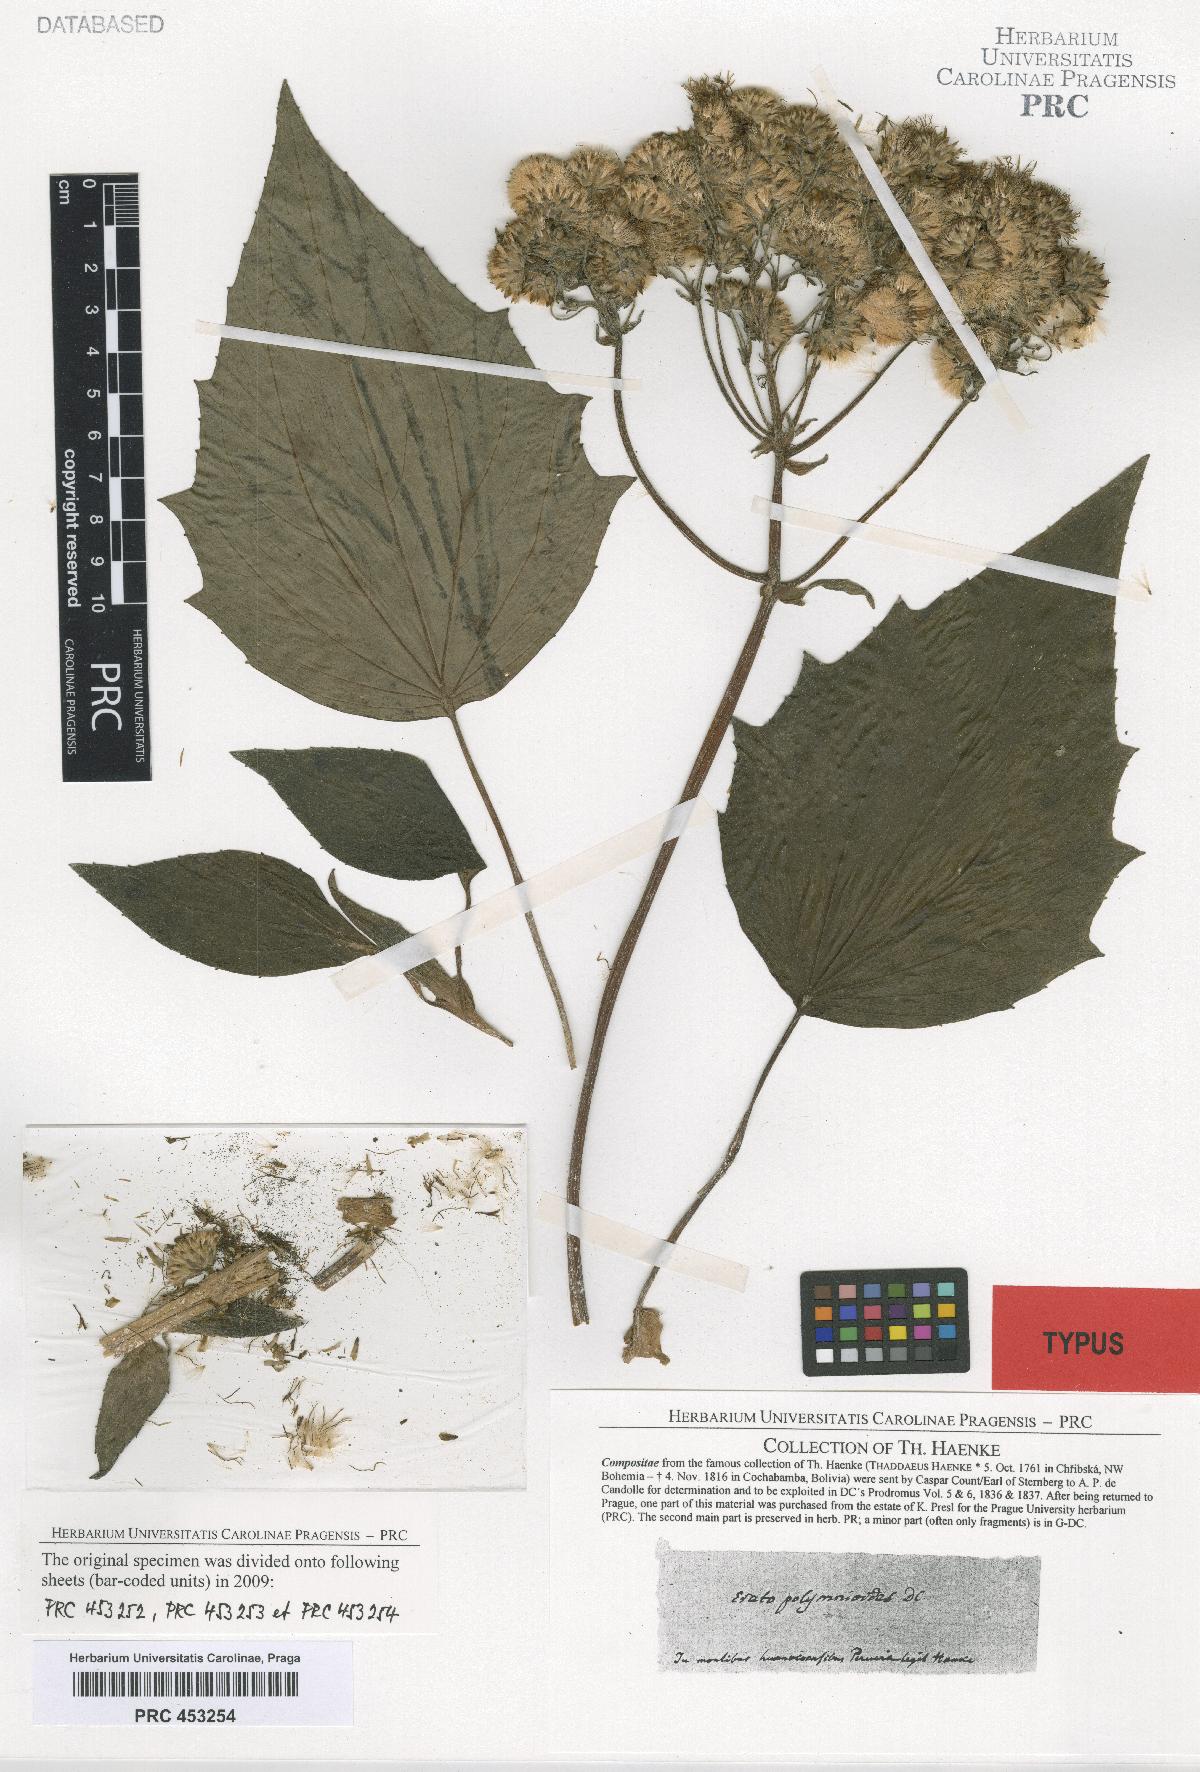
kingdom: Plantae
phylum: Tracheophyta
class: Magnoliopsida
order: Asterales
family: Asteraceae
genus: Erato
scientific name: Erato polymnioides
